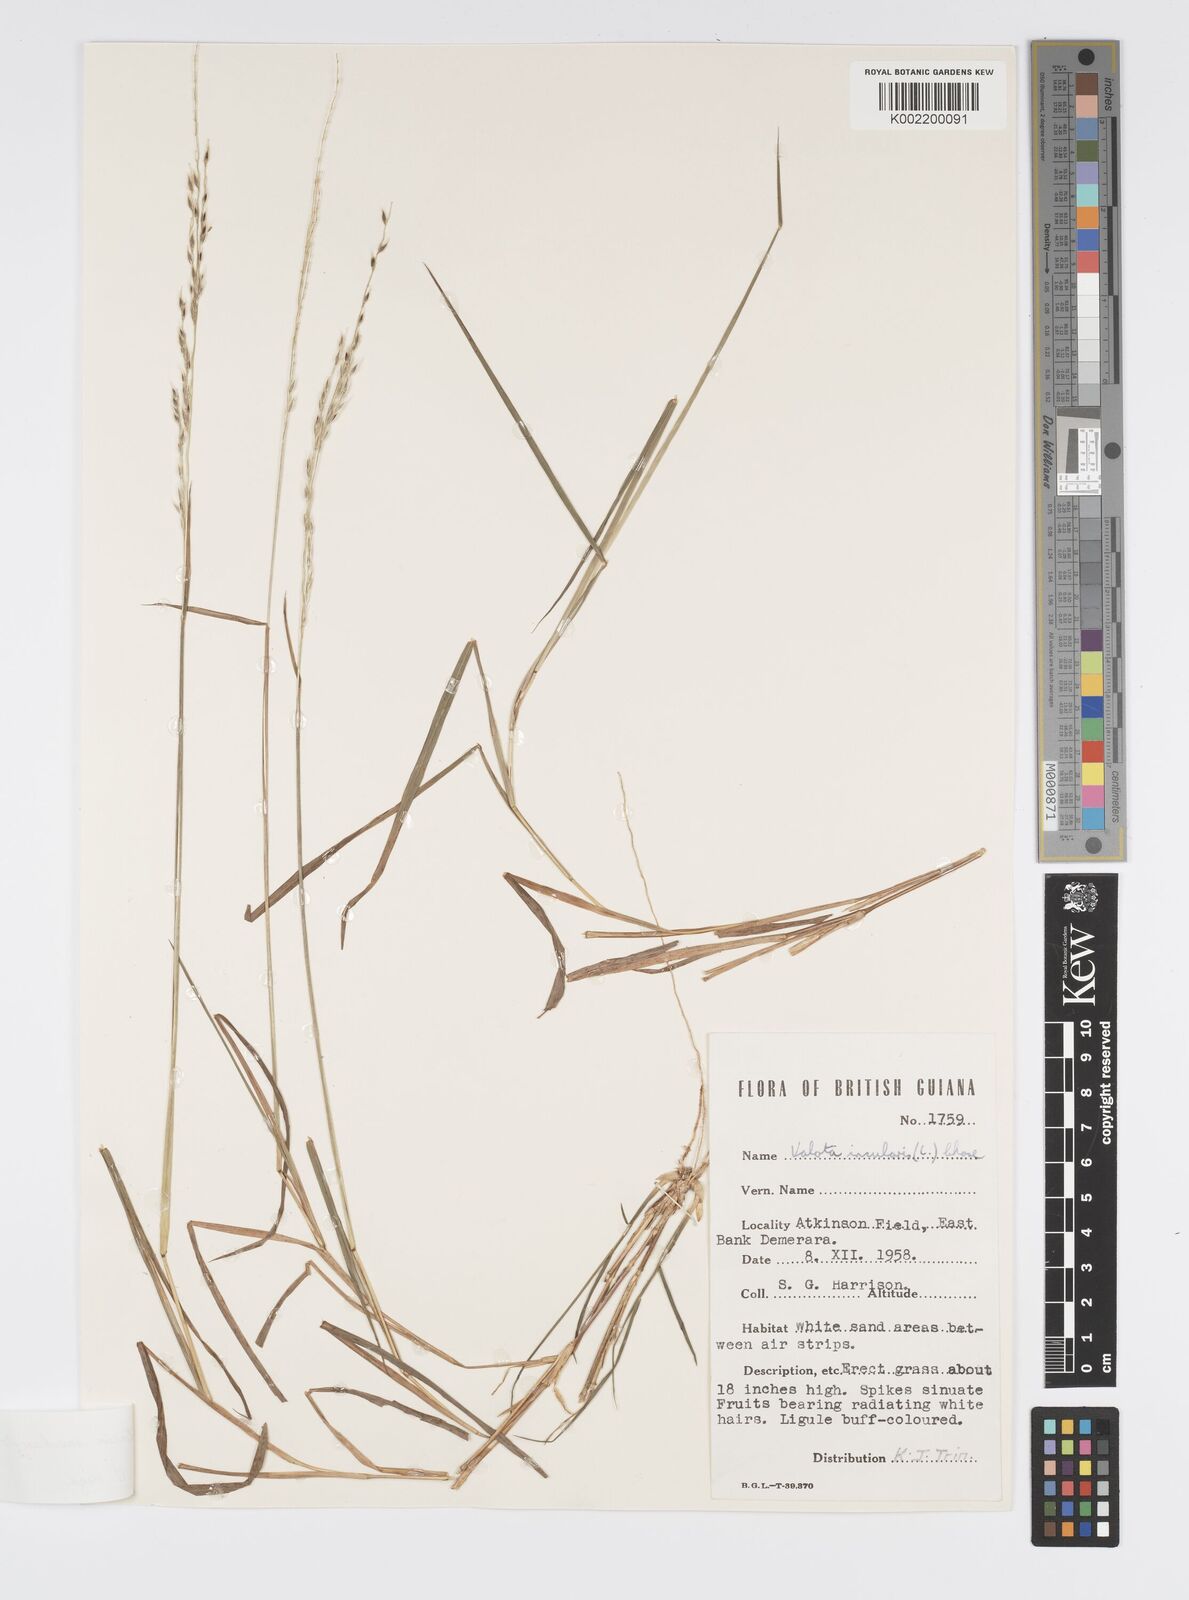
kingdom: Plantae
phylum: Tracheophyta
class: Liliopsida
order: Poales
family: Poaceae
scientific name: Poaceae
